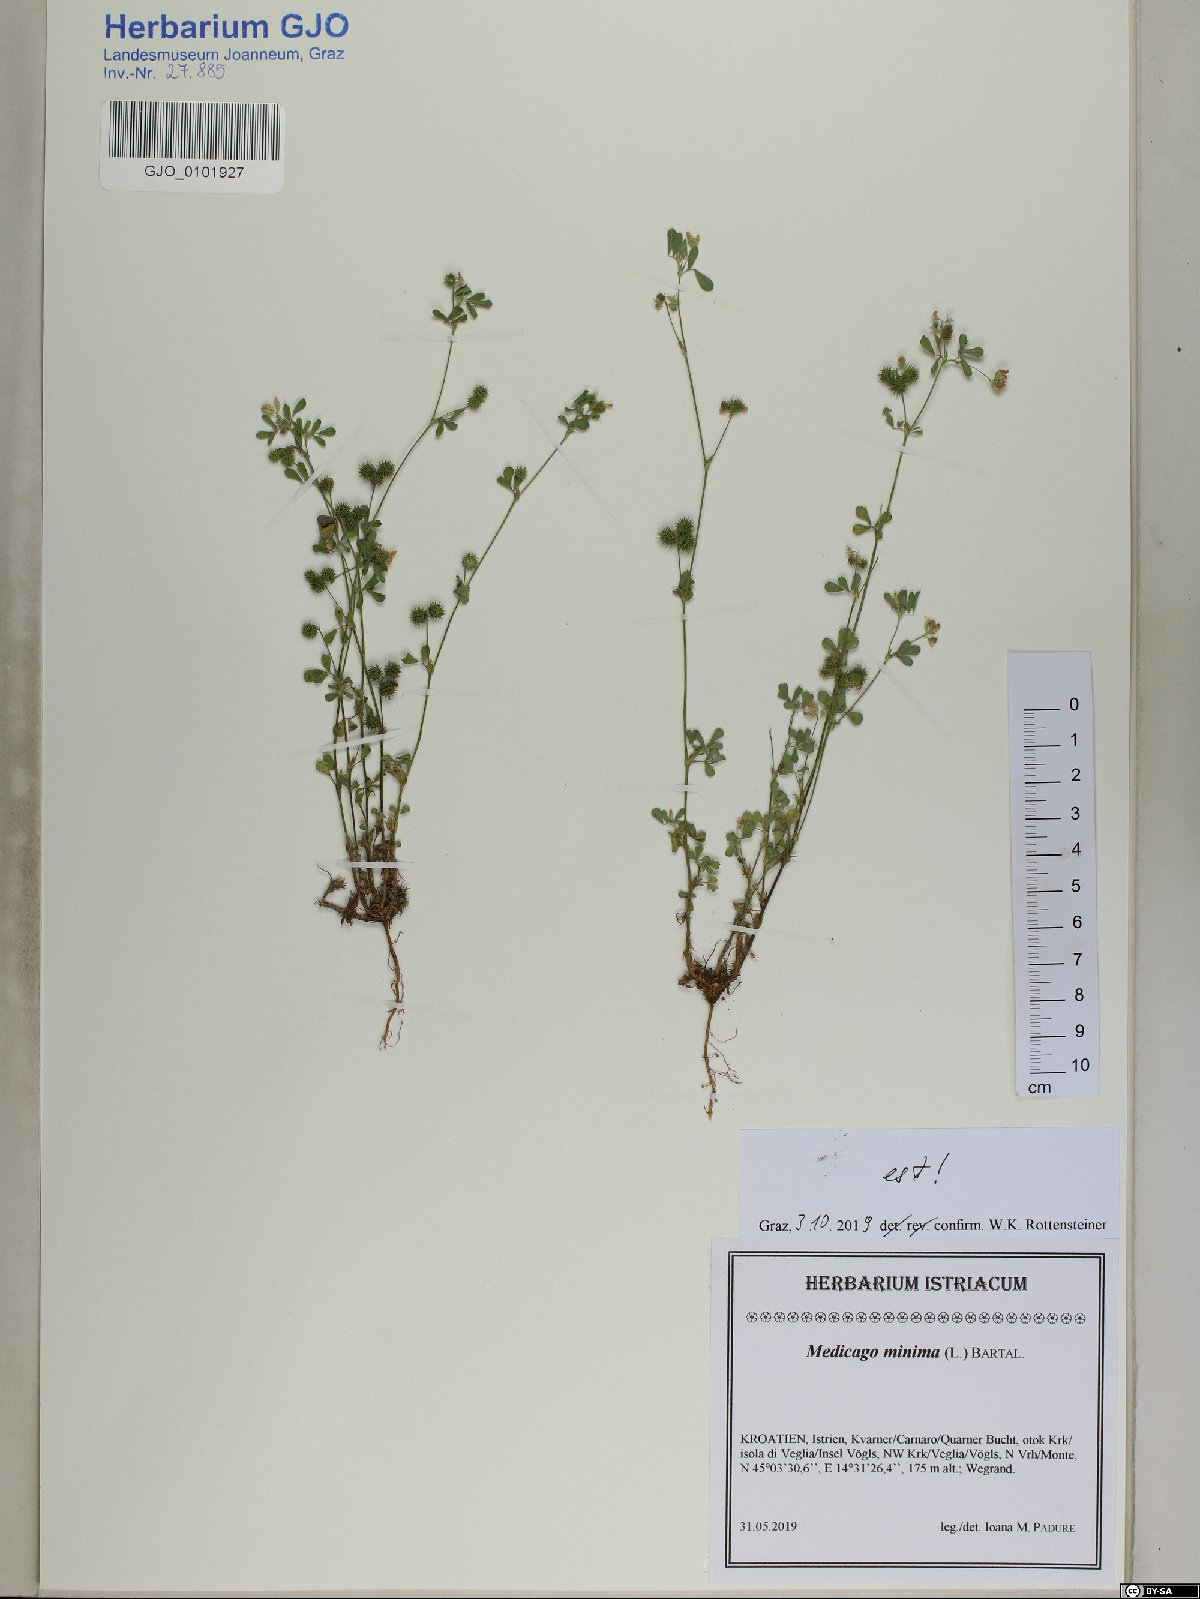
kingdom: Plantae
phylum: Tracheophyta
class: Magnoliopsida
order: Fabales
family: Fabaceae
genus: Medicago
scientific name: Medicago minima
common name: Little bur-clover
